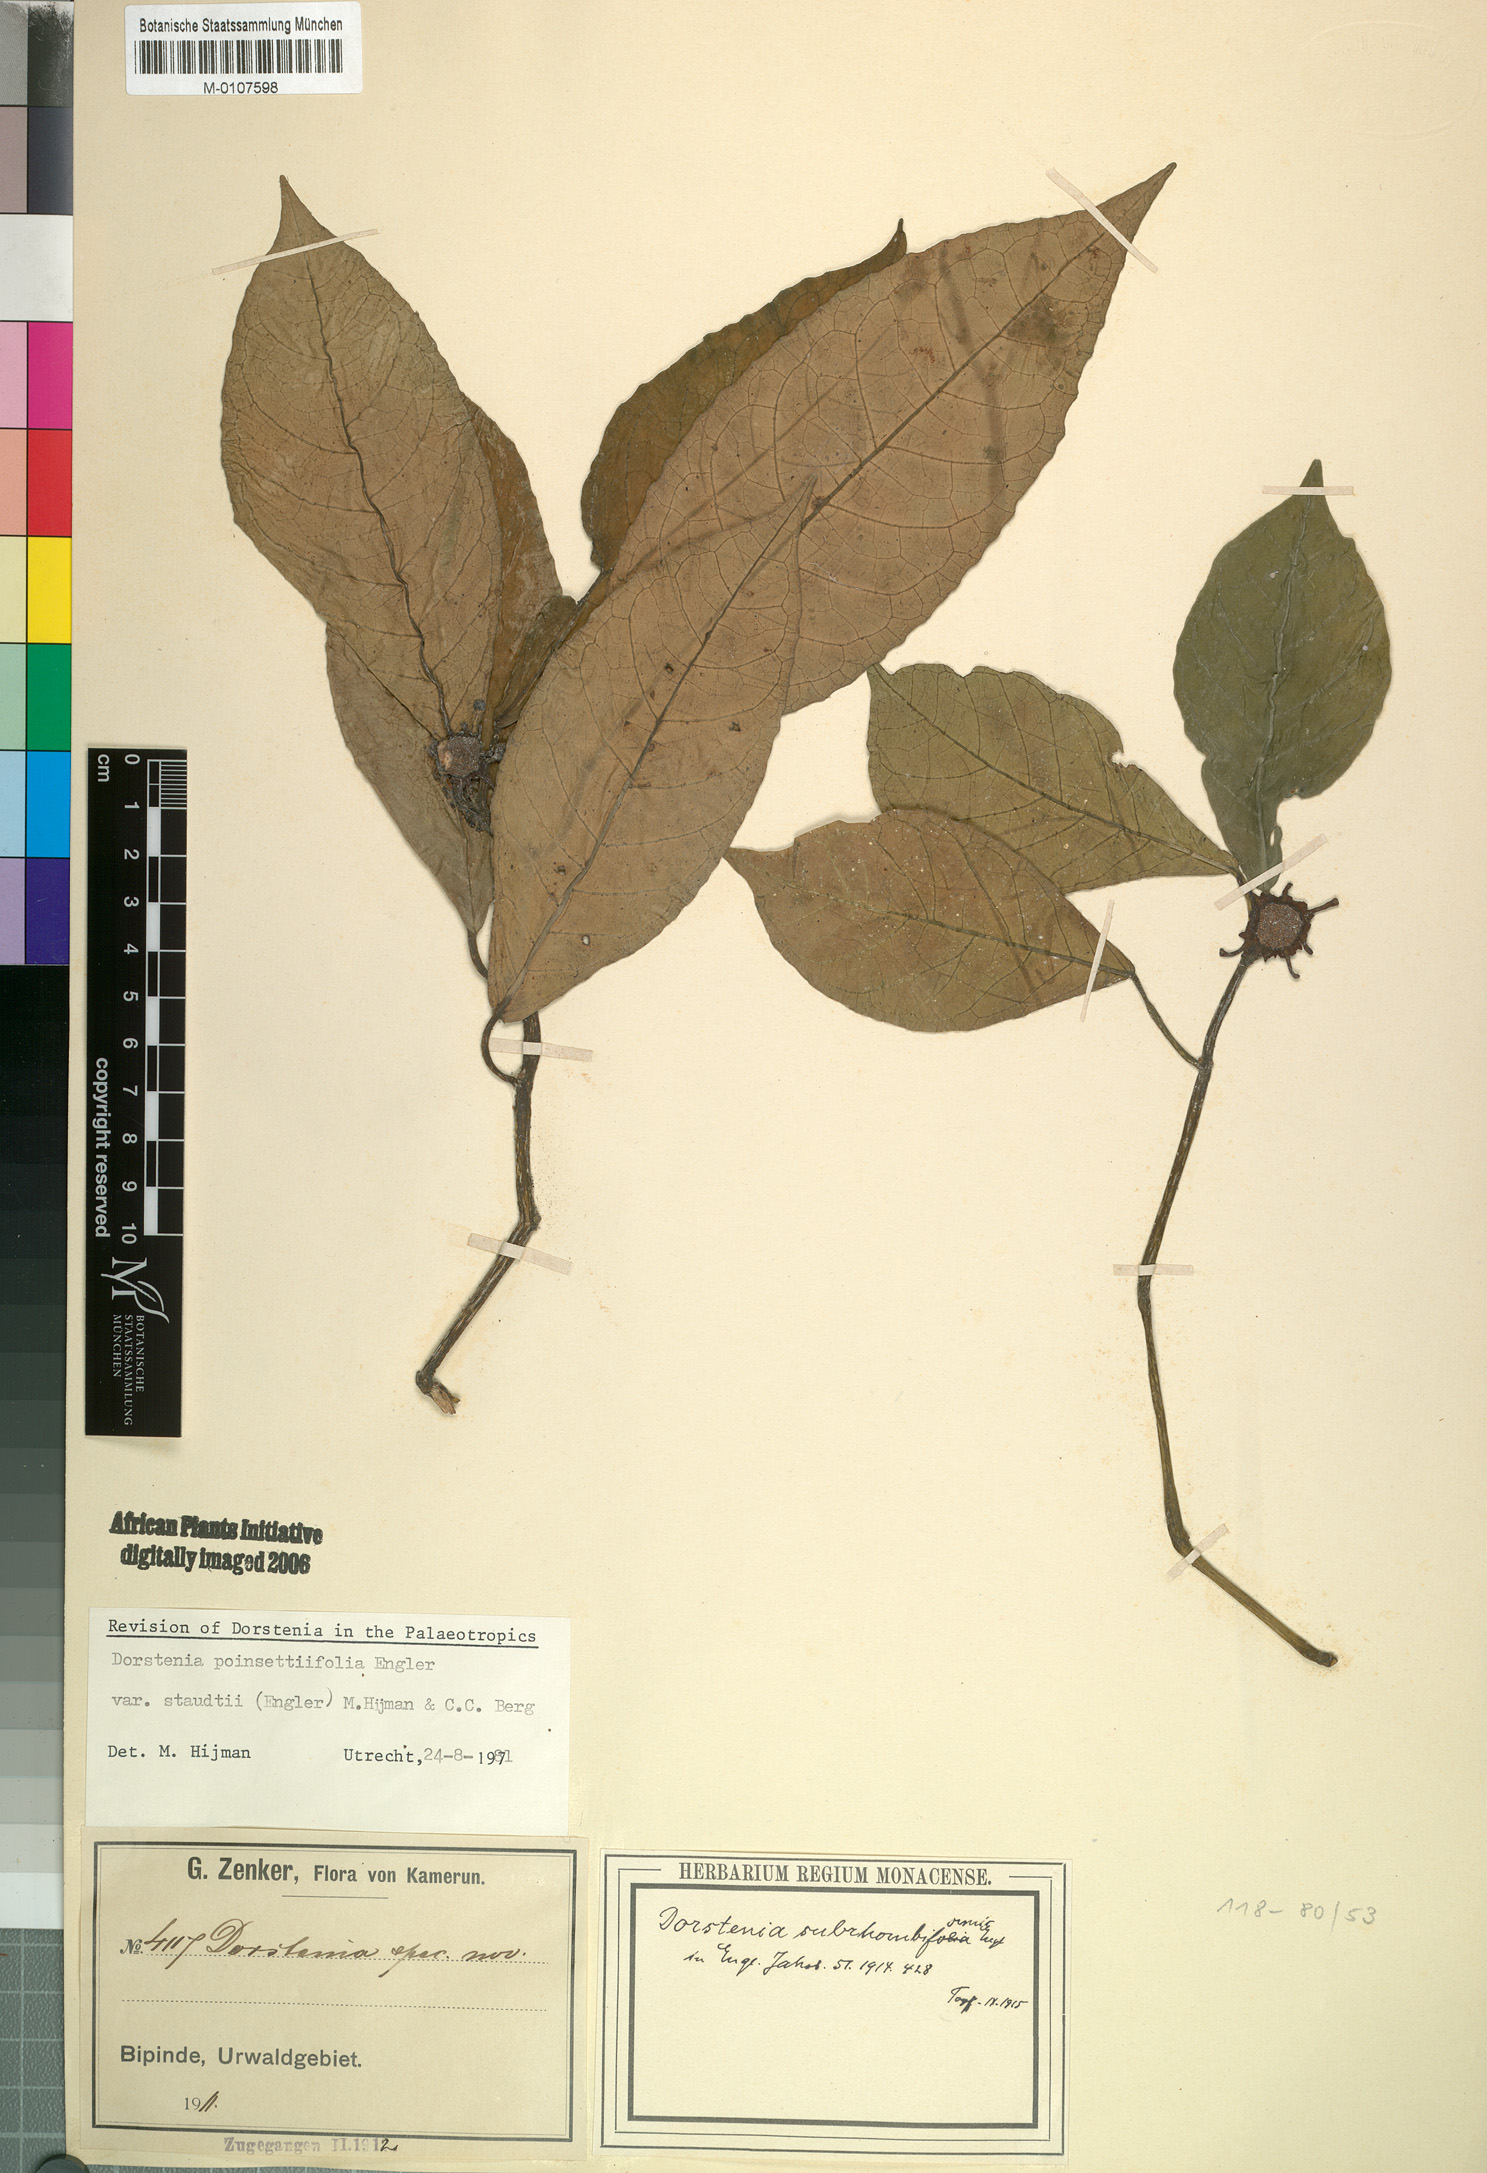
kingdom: Plantae
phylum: Tracheophyta
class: Magnoliopsida
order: Rosales
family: Moraceae
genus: Dorstenia
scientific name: Dorstenia poinsettifolia
